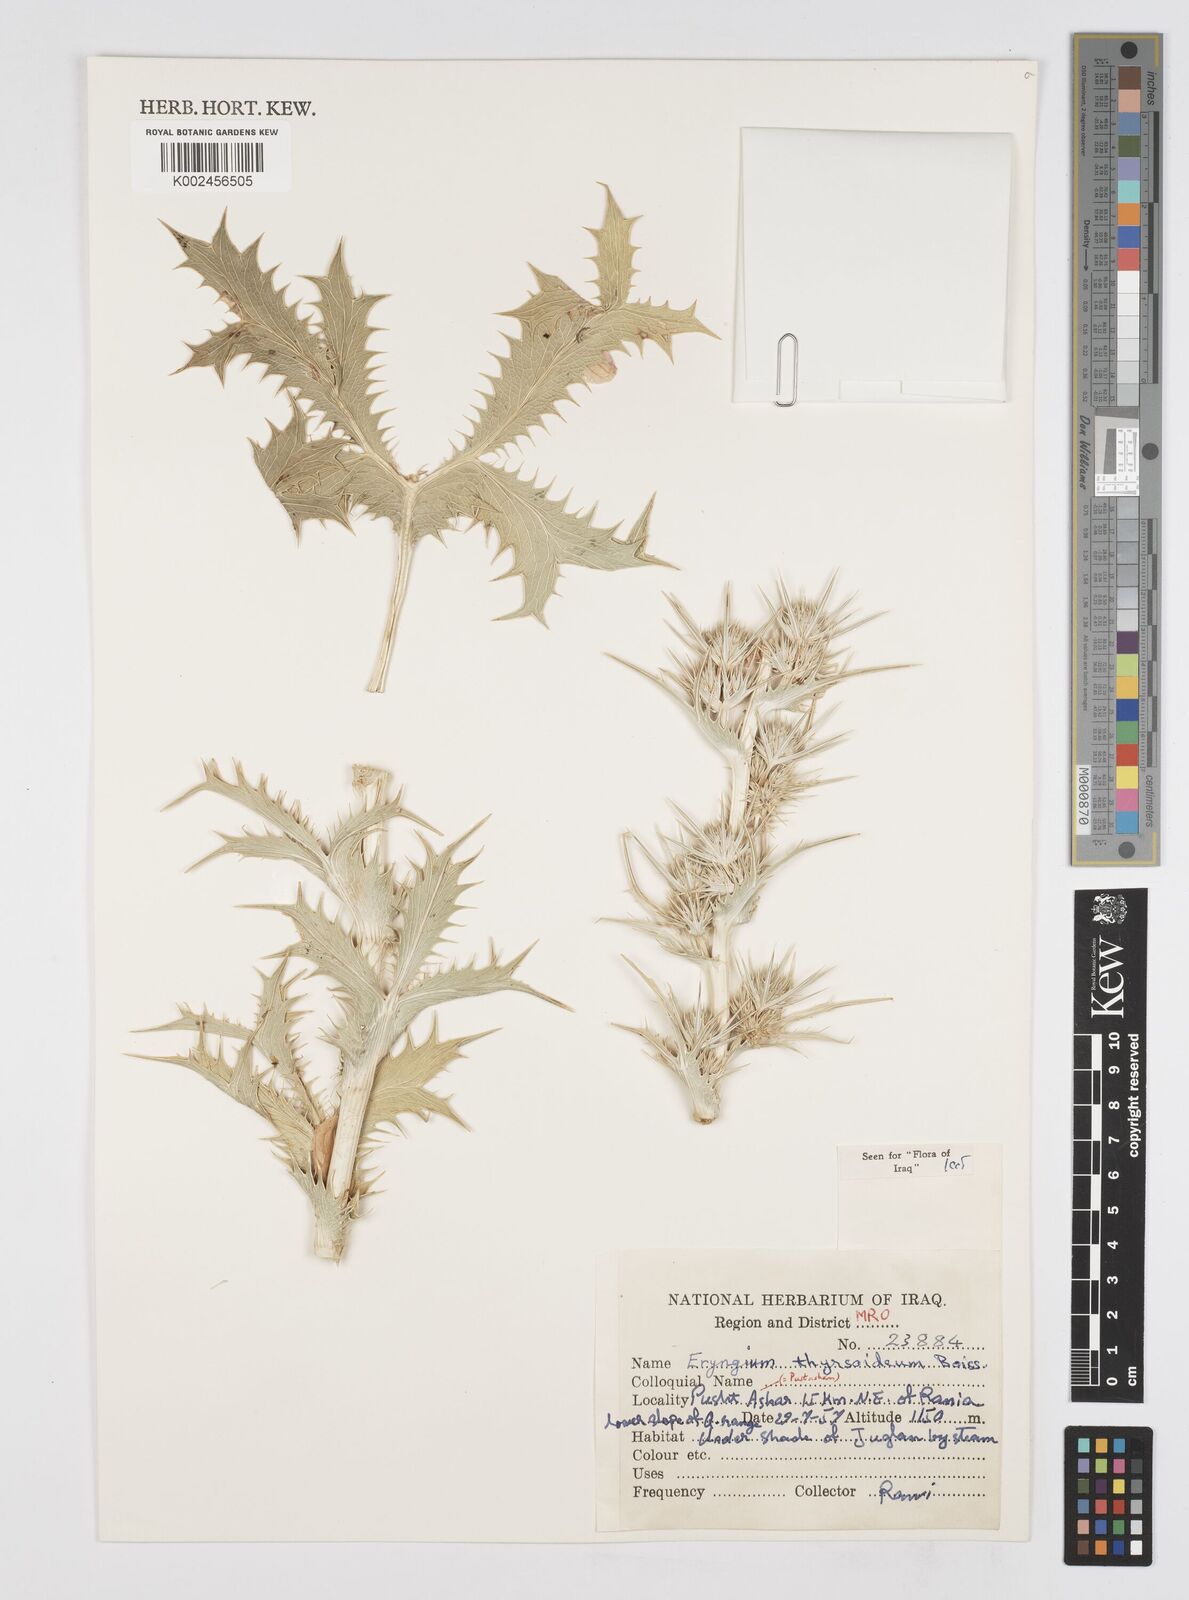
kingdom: Plantae
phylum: Tracheophyta
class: Magnoliopsida
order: Apiales
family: Apiaceae
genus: Eryngium
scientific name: Eryngium thyrsoideum
